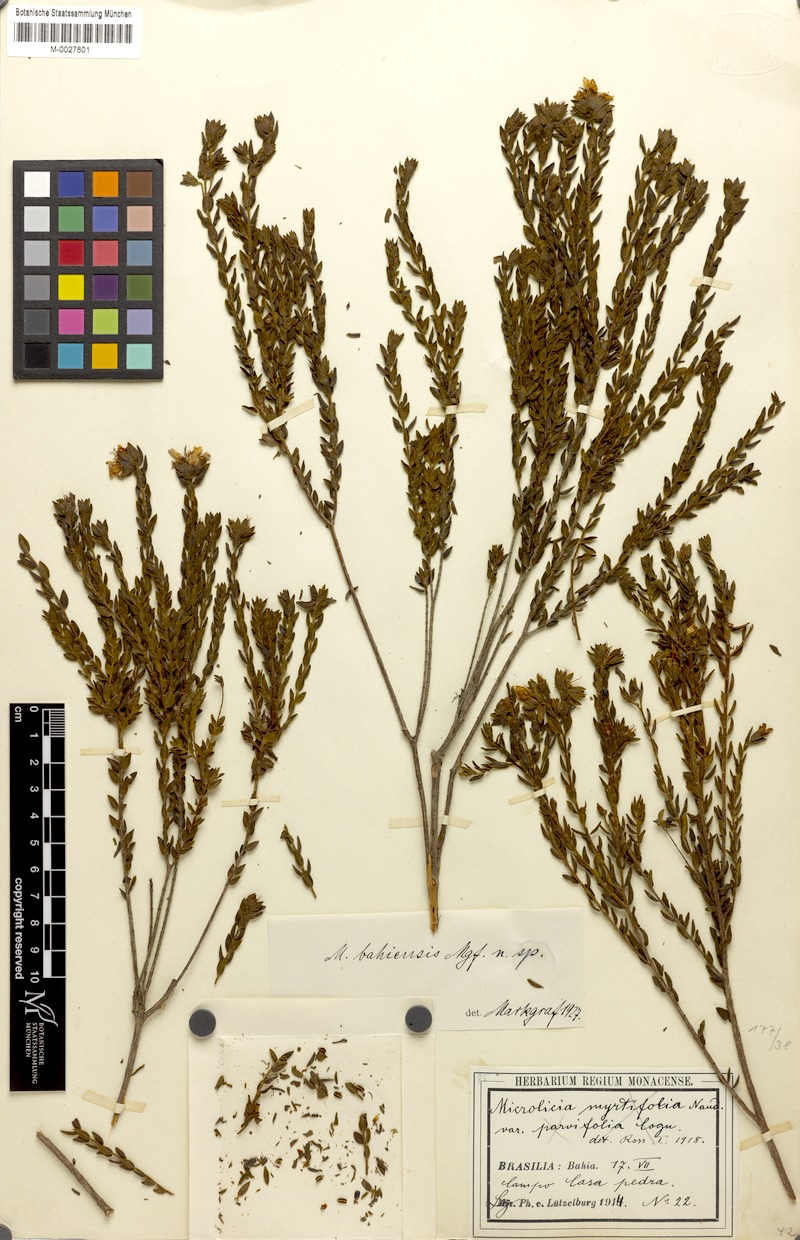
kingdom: Plantae
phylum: Tracheophyta
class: Magnoliopsida
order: Myrtales
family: Melastomataceae
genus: Microlicia
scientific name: Microlicia bahiensis
